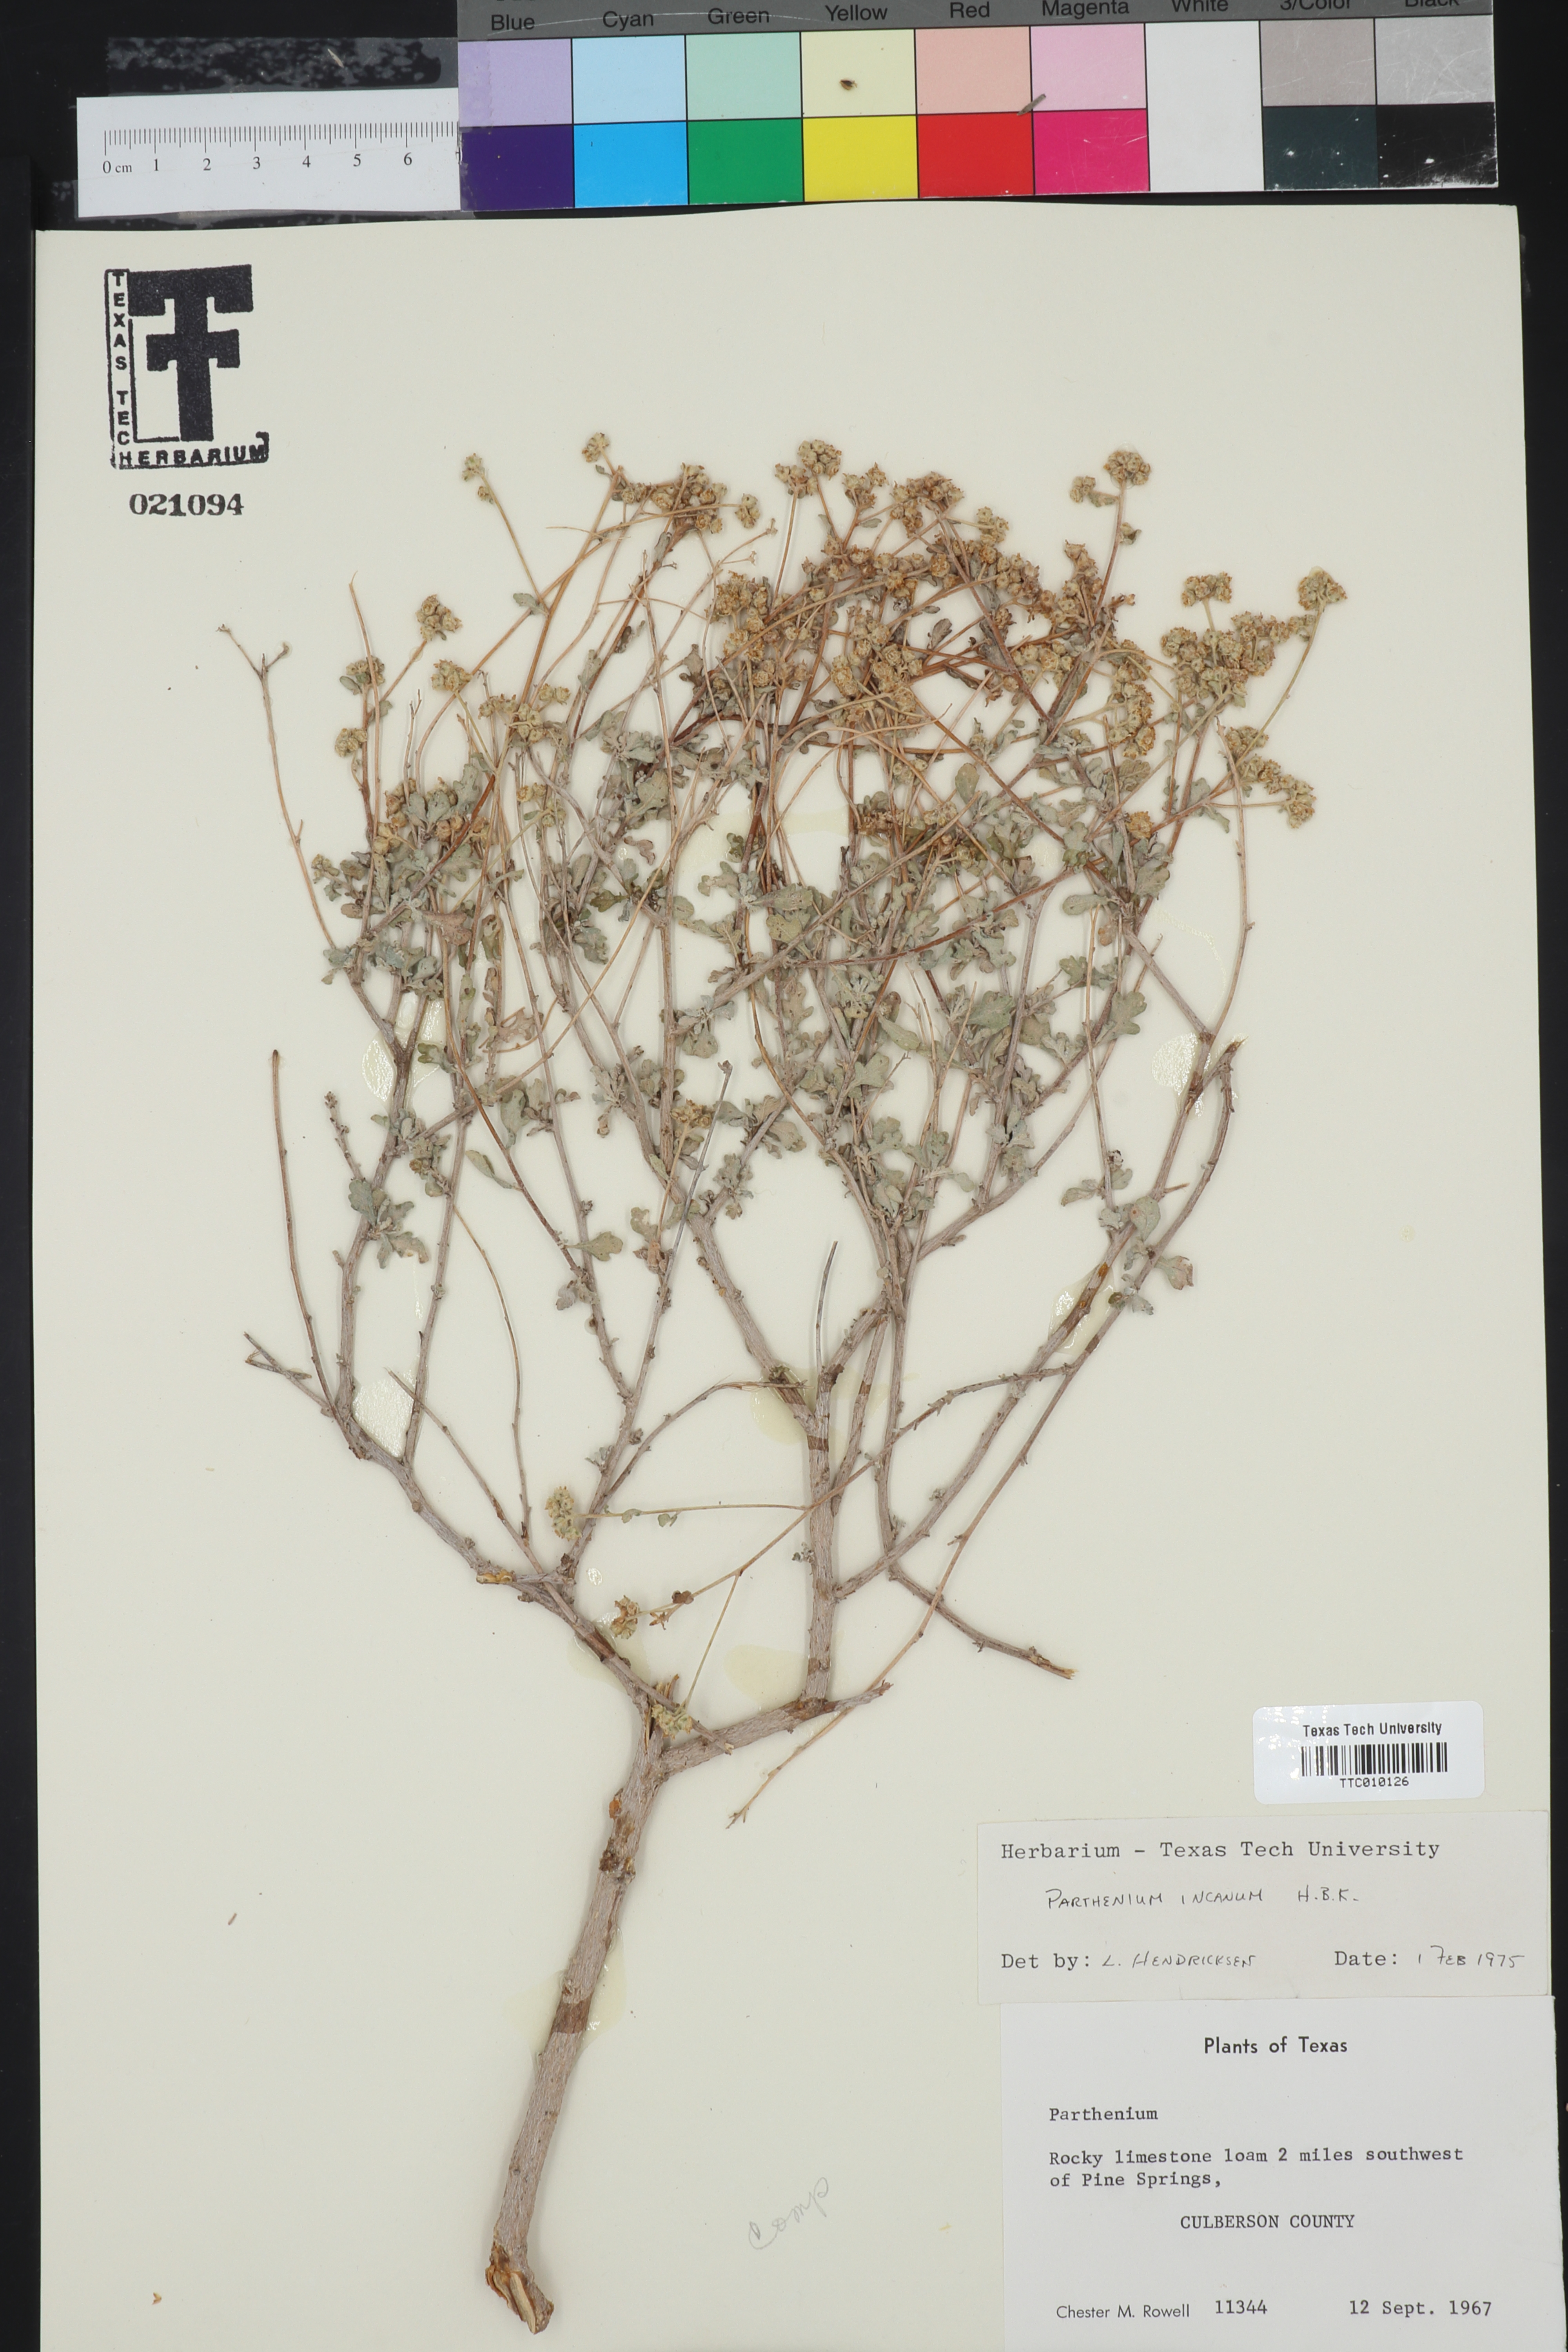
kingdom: Plantae
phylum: Tracheophyta
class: Magnoliopsida
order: Asterales
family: Asteraceae
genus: Parthenium
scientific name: Parthenium incanum
